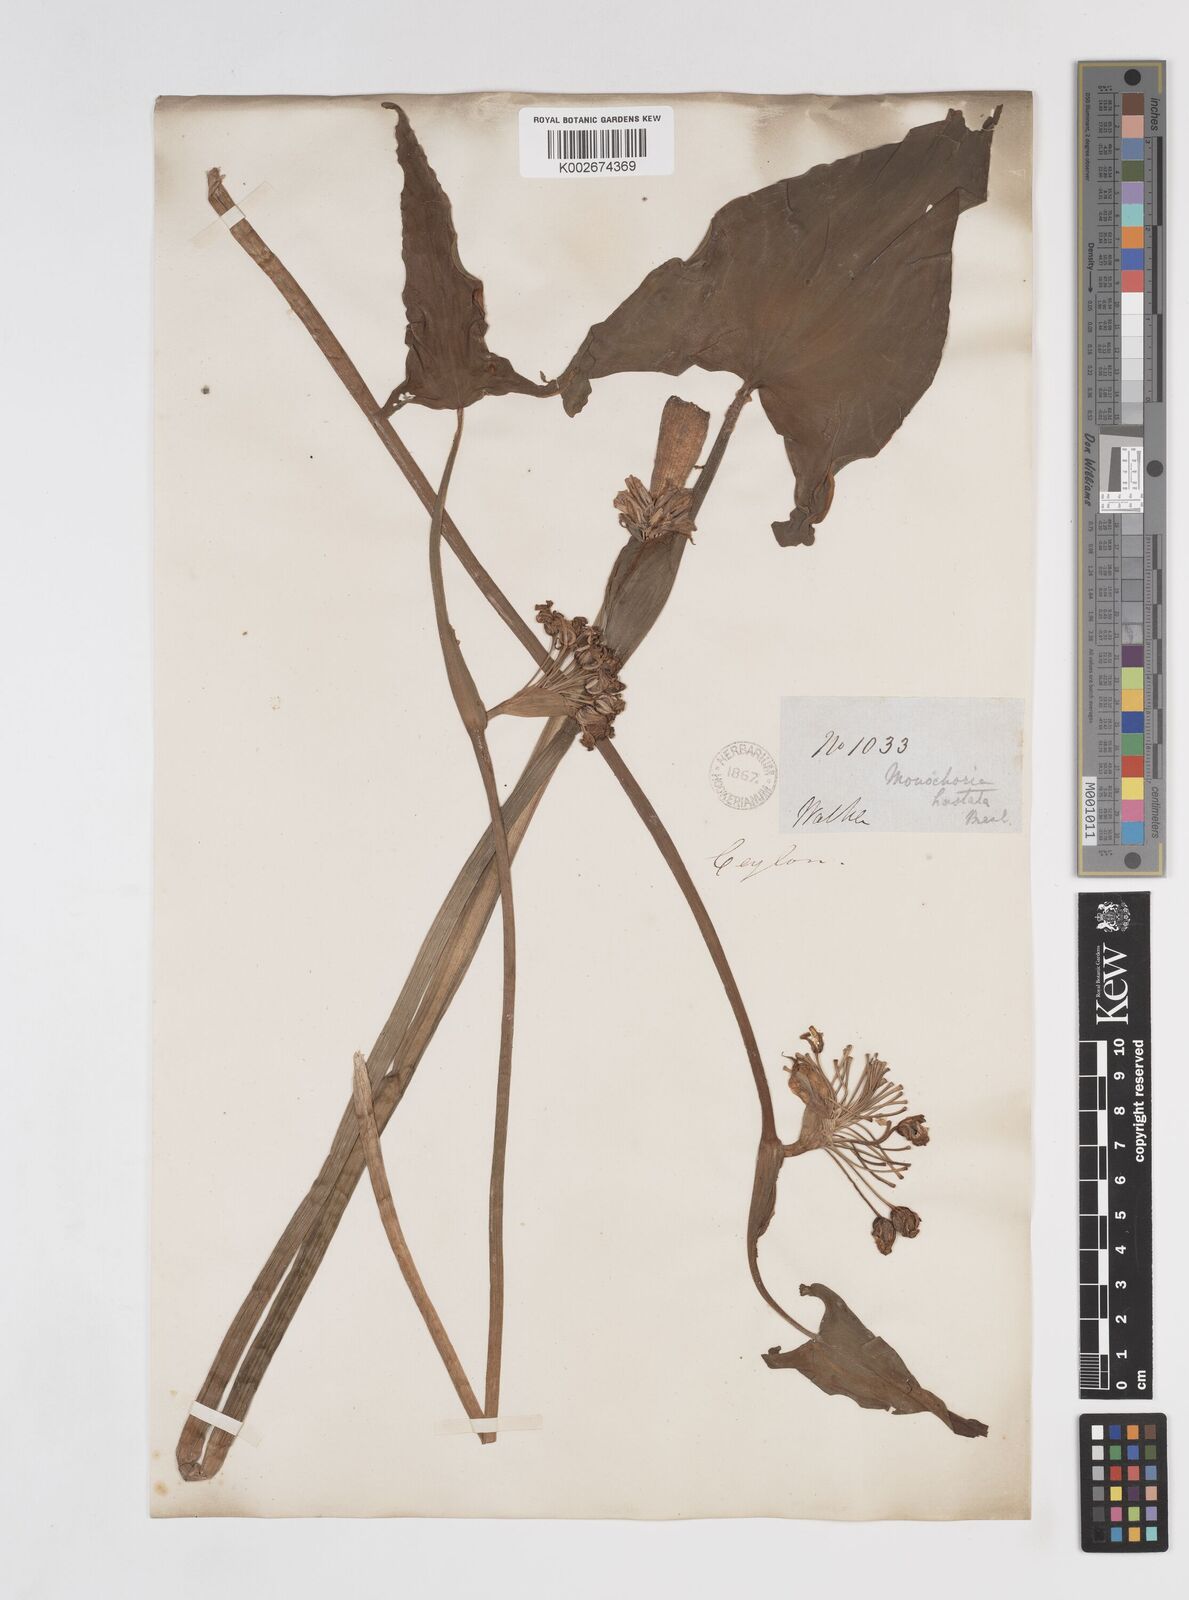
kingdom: Plantae
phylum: Tracheophyta
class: Liliopsida
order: Commelinales
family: Pontederiaceae
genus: Pontederia
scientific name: Pontederia hastata
